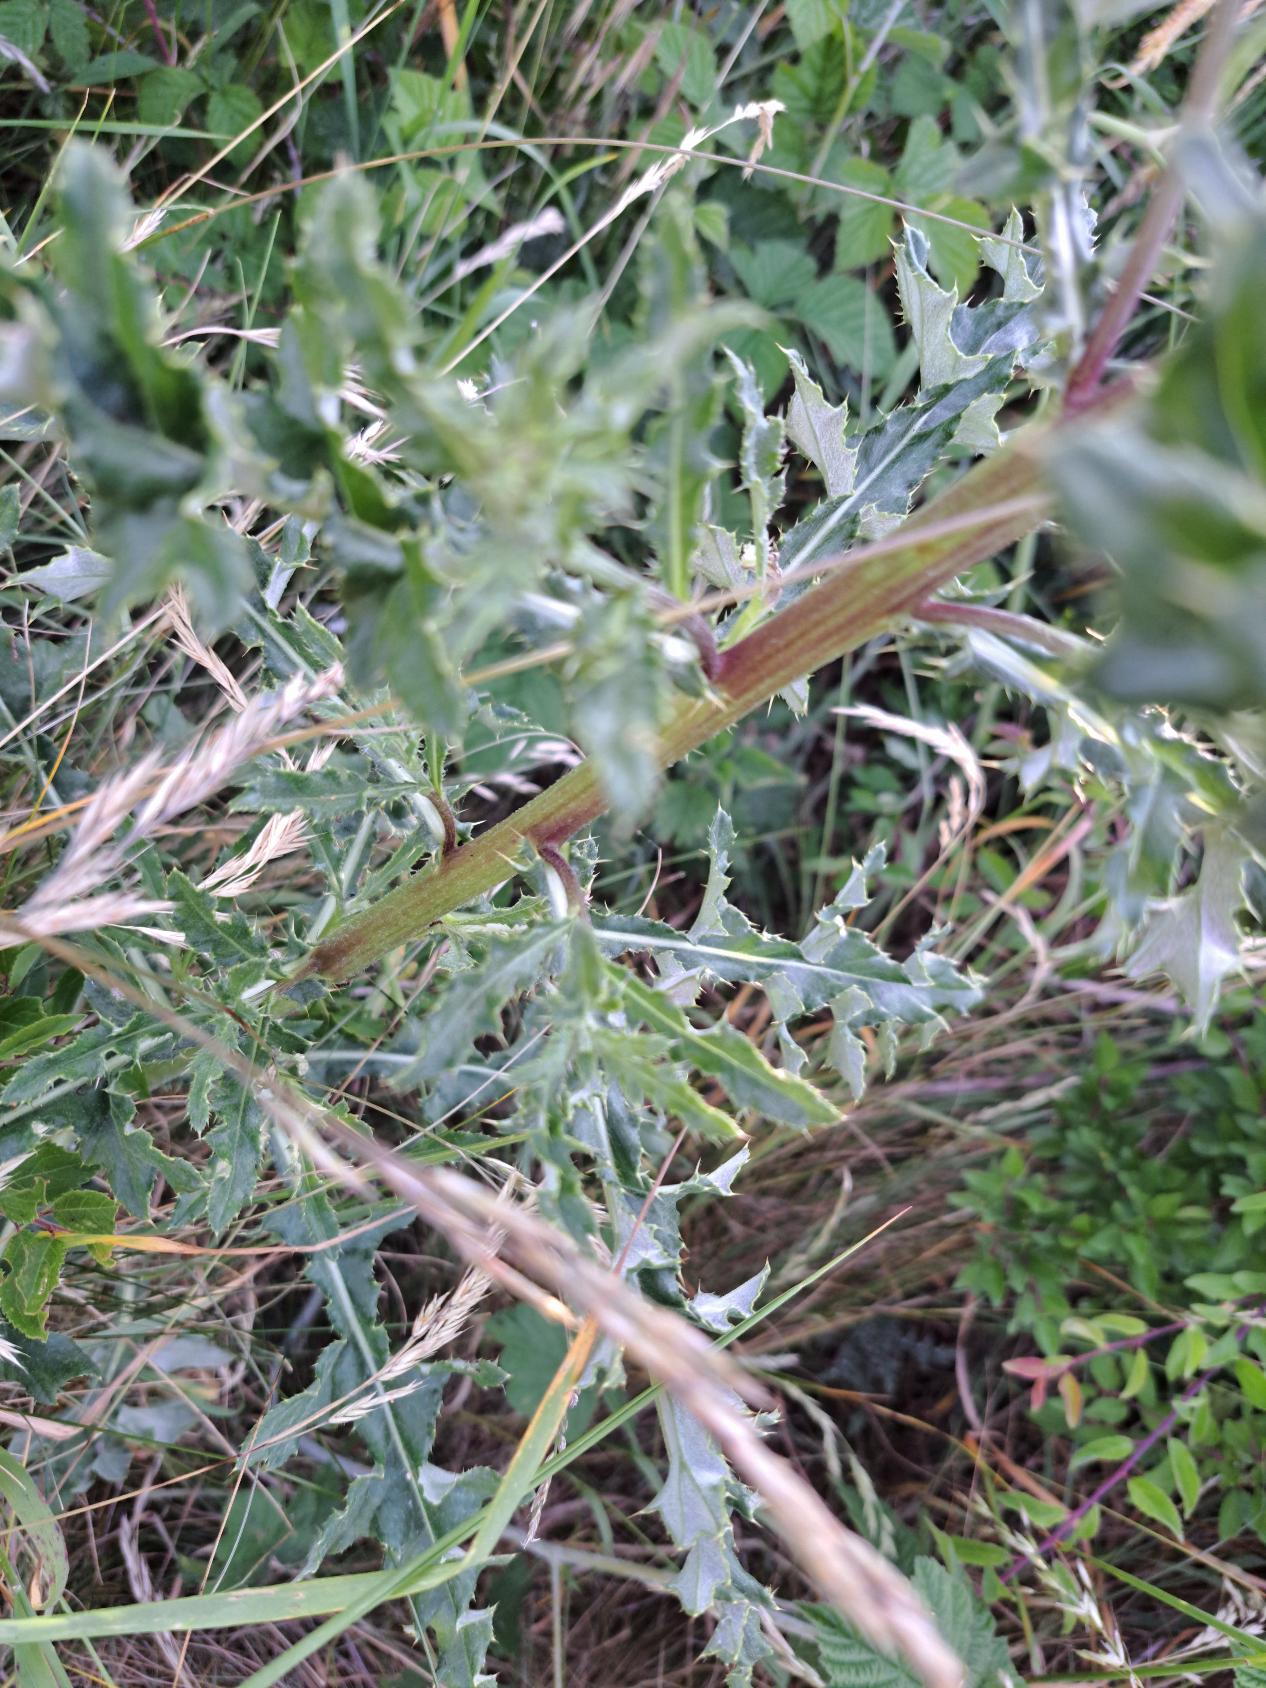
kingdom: Plantae
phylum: Tracheophyta
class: Magnoliopsida
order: Asterales
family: Asteraceae
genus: Cirsium
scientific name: Cirsium arvense
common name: Ager-tidsel
